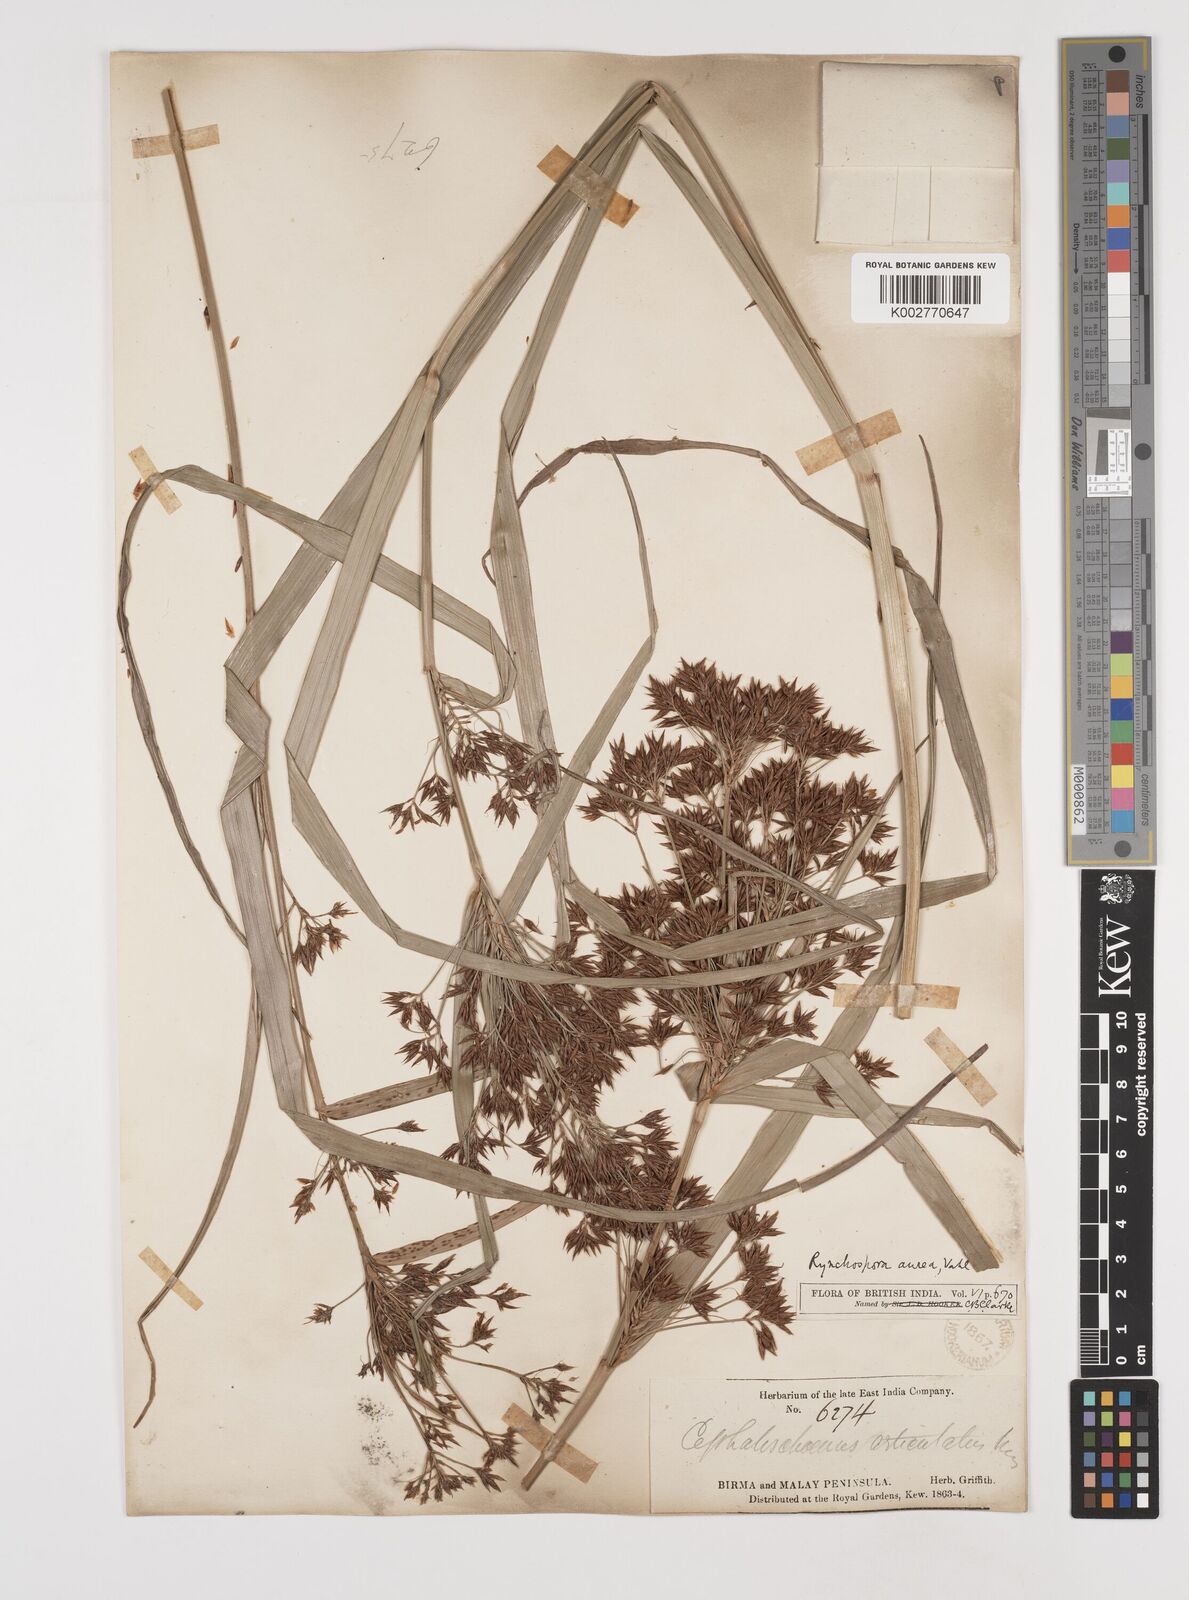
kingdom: Plantae
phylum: Tracheophyta
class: Liliopsida
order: Poales
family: Cyperaceae
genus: Rhynchospora
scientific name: Rhynchospora corymbosa
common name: Golden beak sedge
